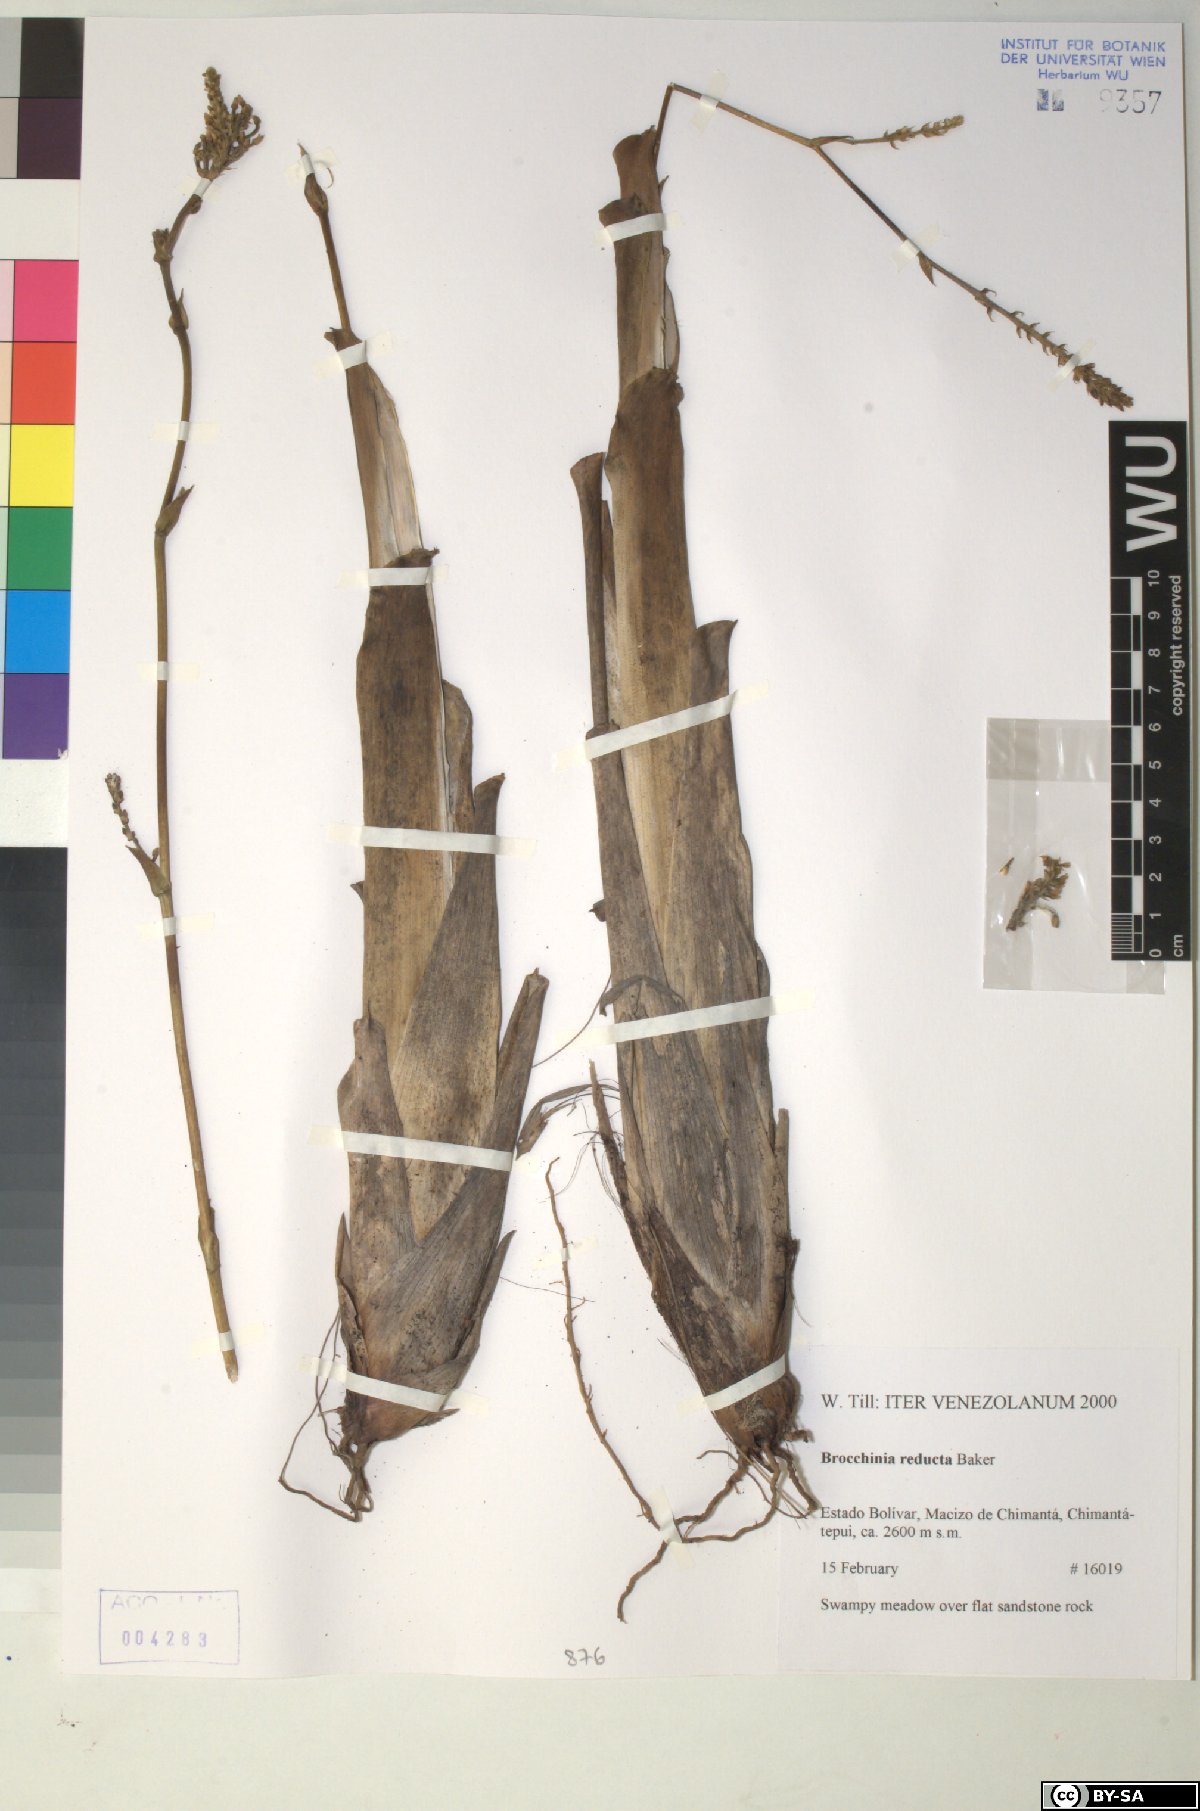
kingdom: Plantae
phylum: Tracheophyta
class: Liliopsida
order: Poales
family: Bromeliaceae
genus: Brocchinia
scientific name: Brocchinia reducta
